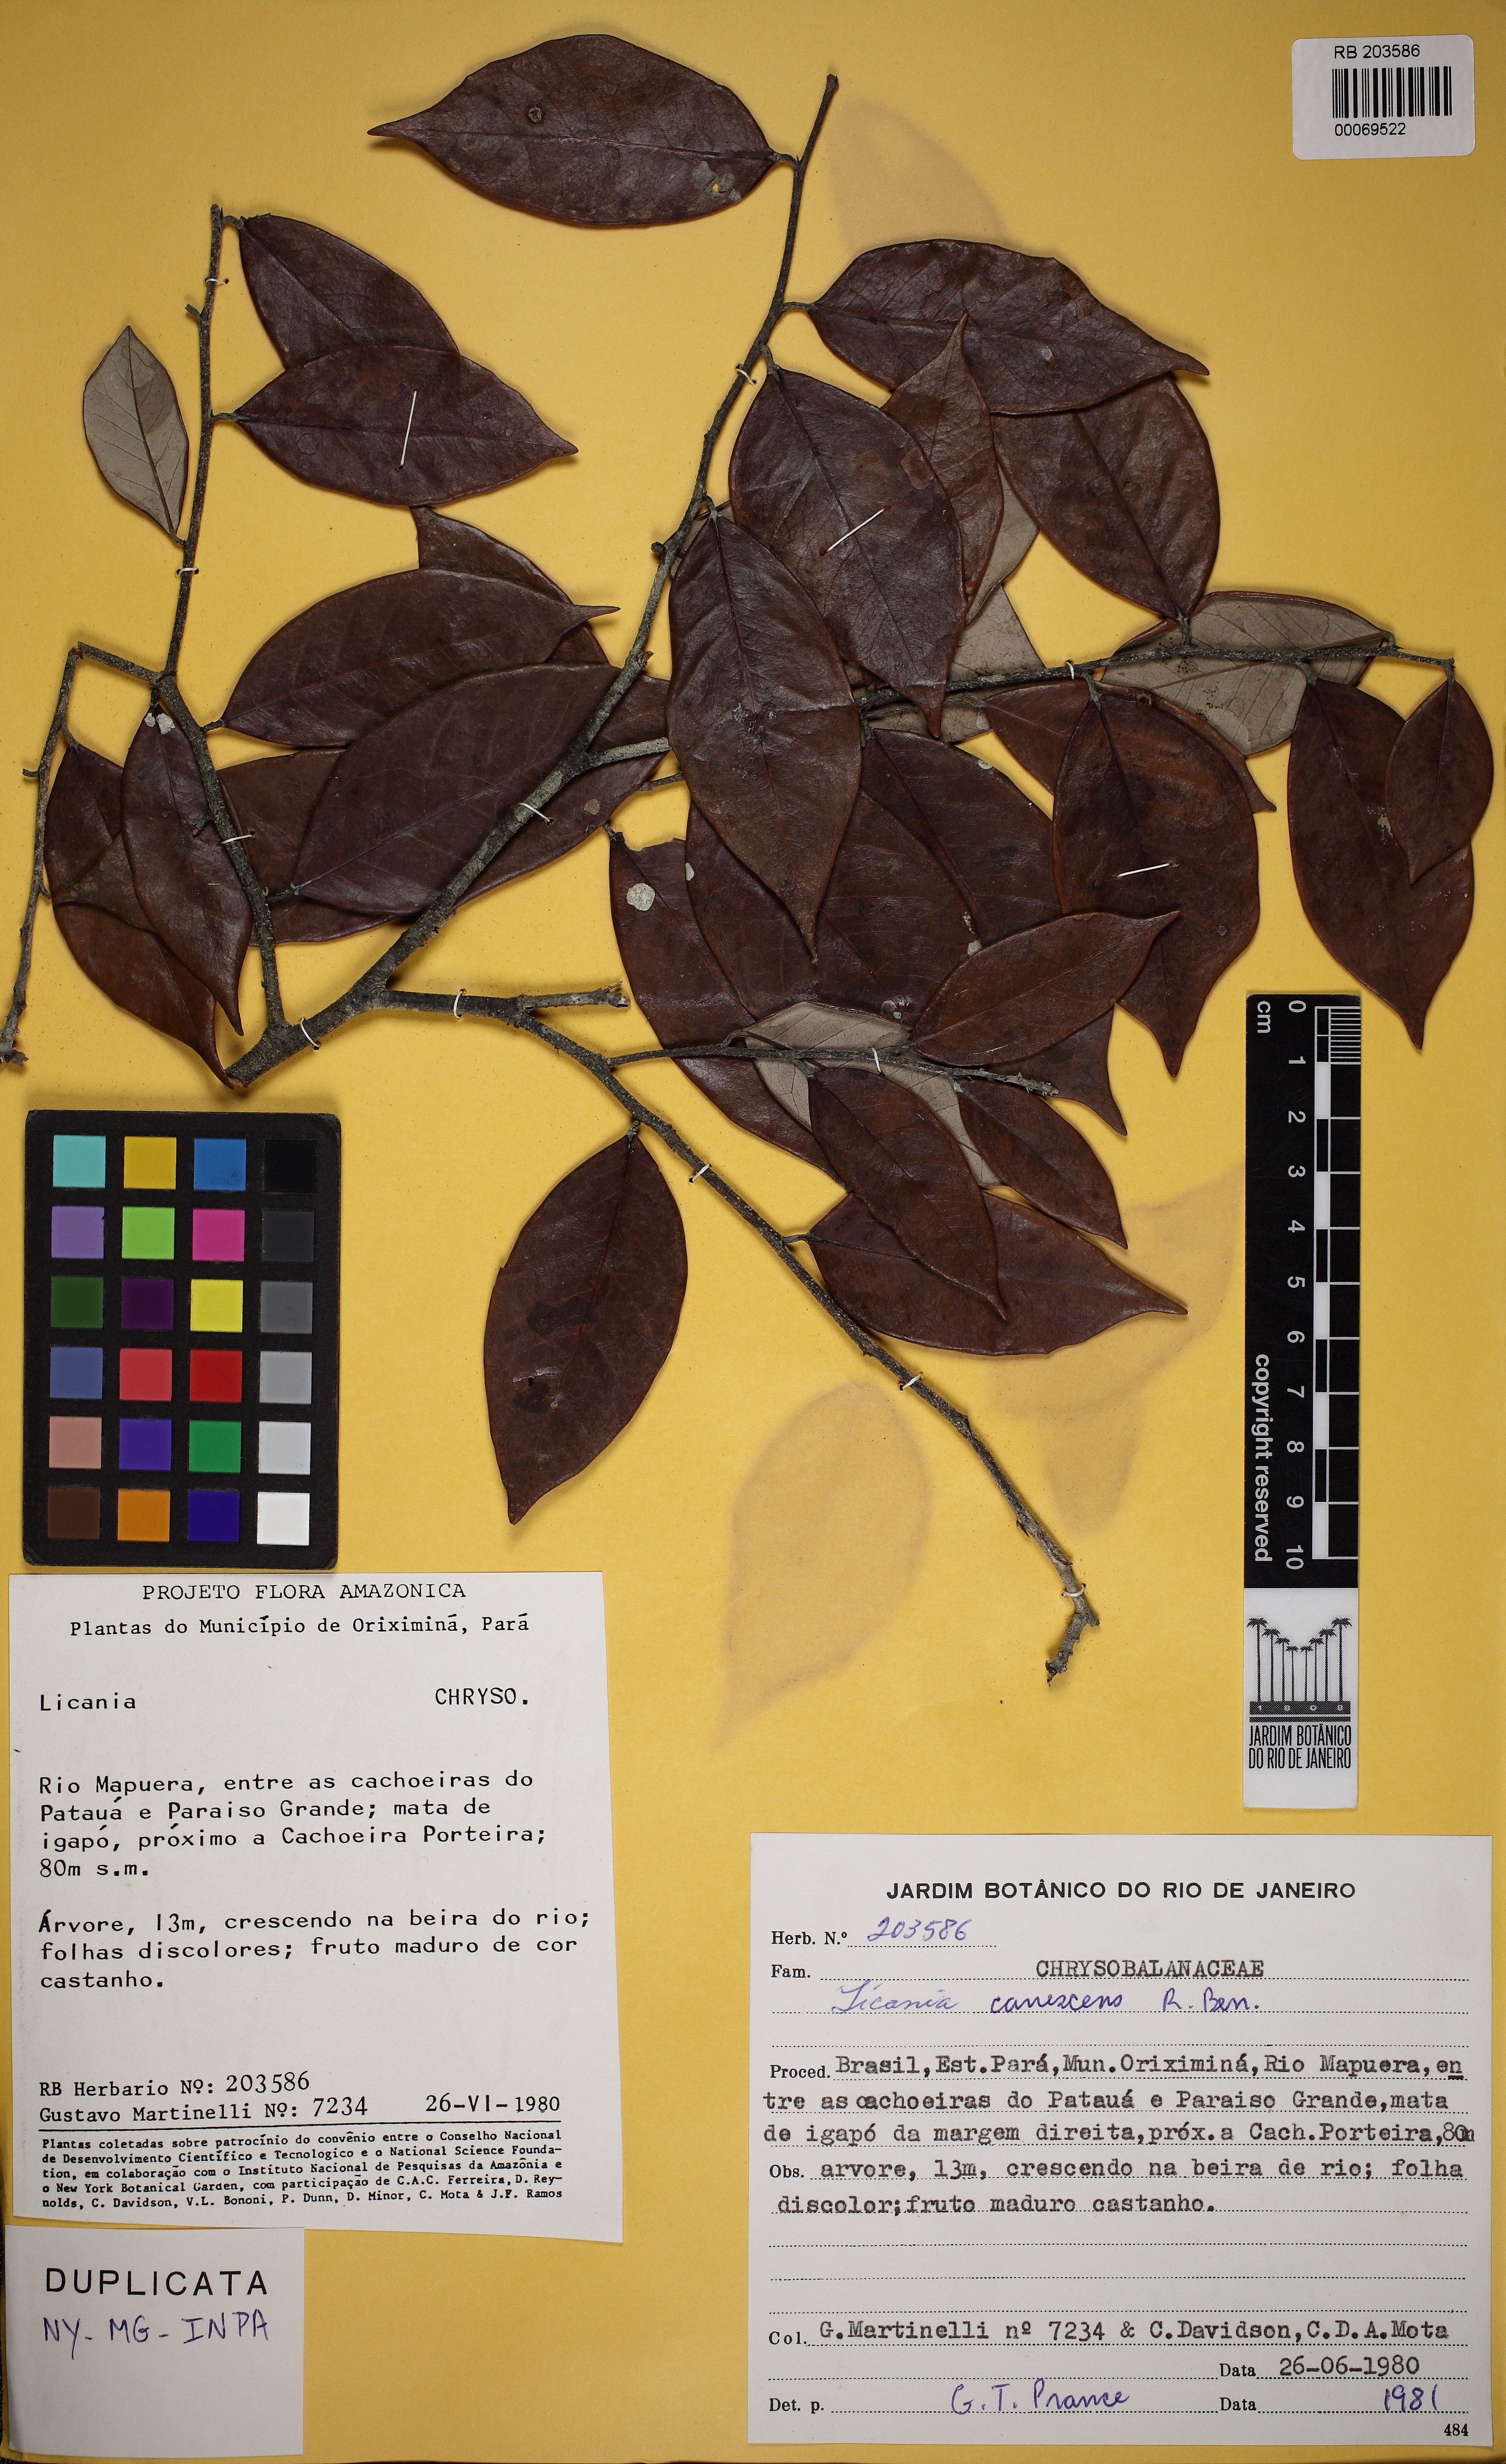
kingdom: Plantae
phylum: Tracheophyta
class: Magnoliopsida
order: Malpighiales
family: Chrysobalanaceae
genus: Licania
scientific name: Licania canescens
